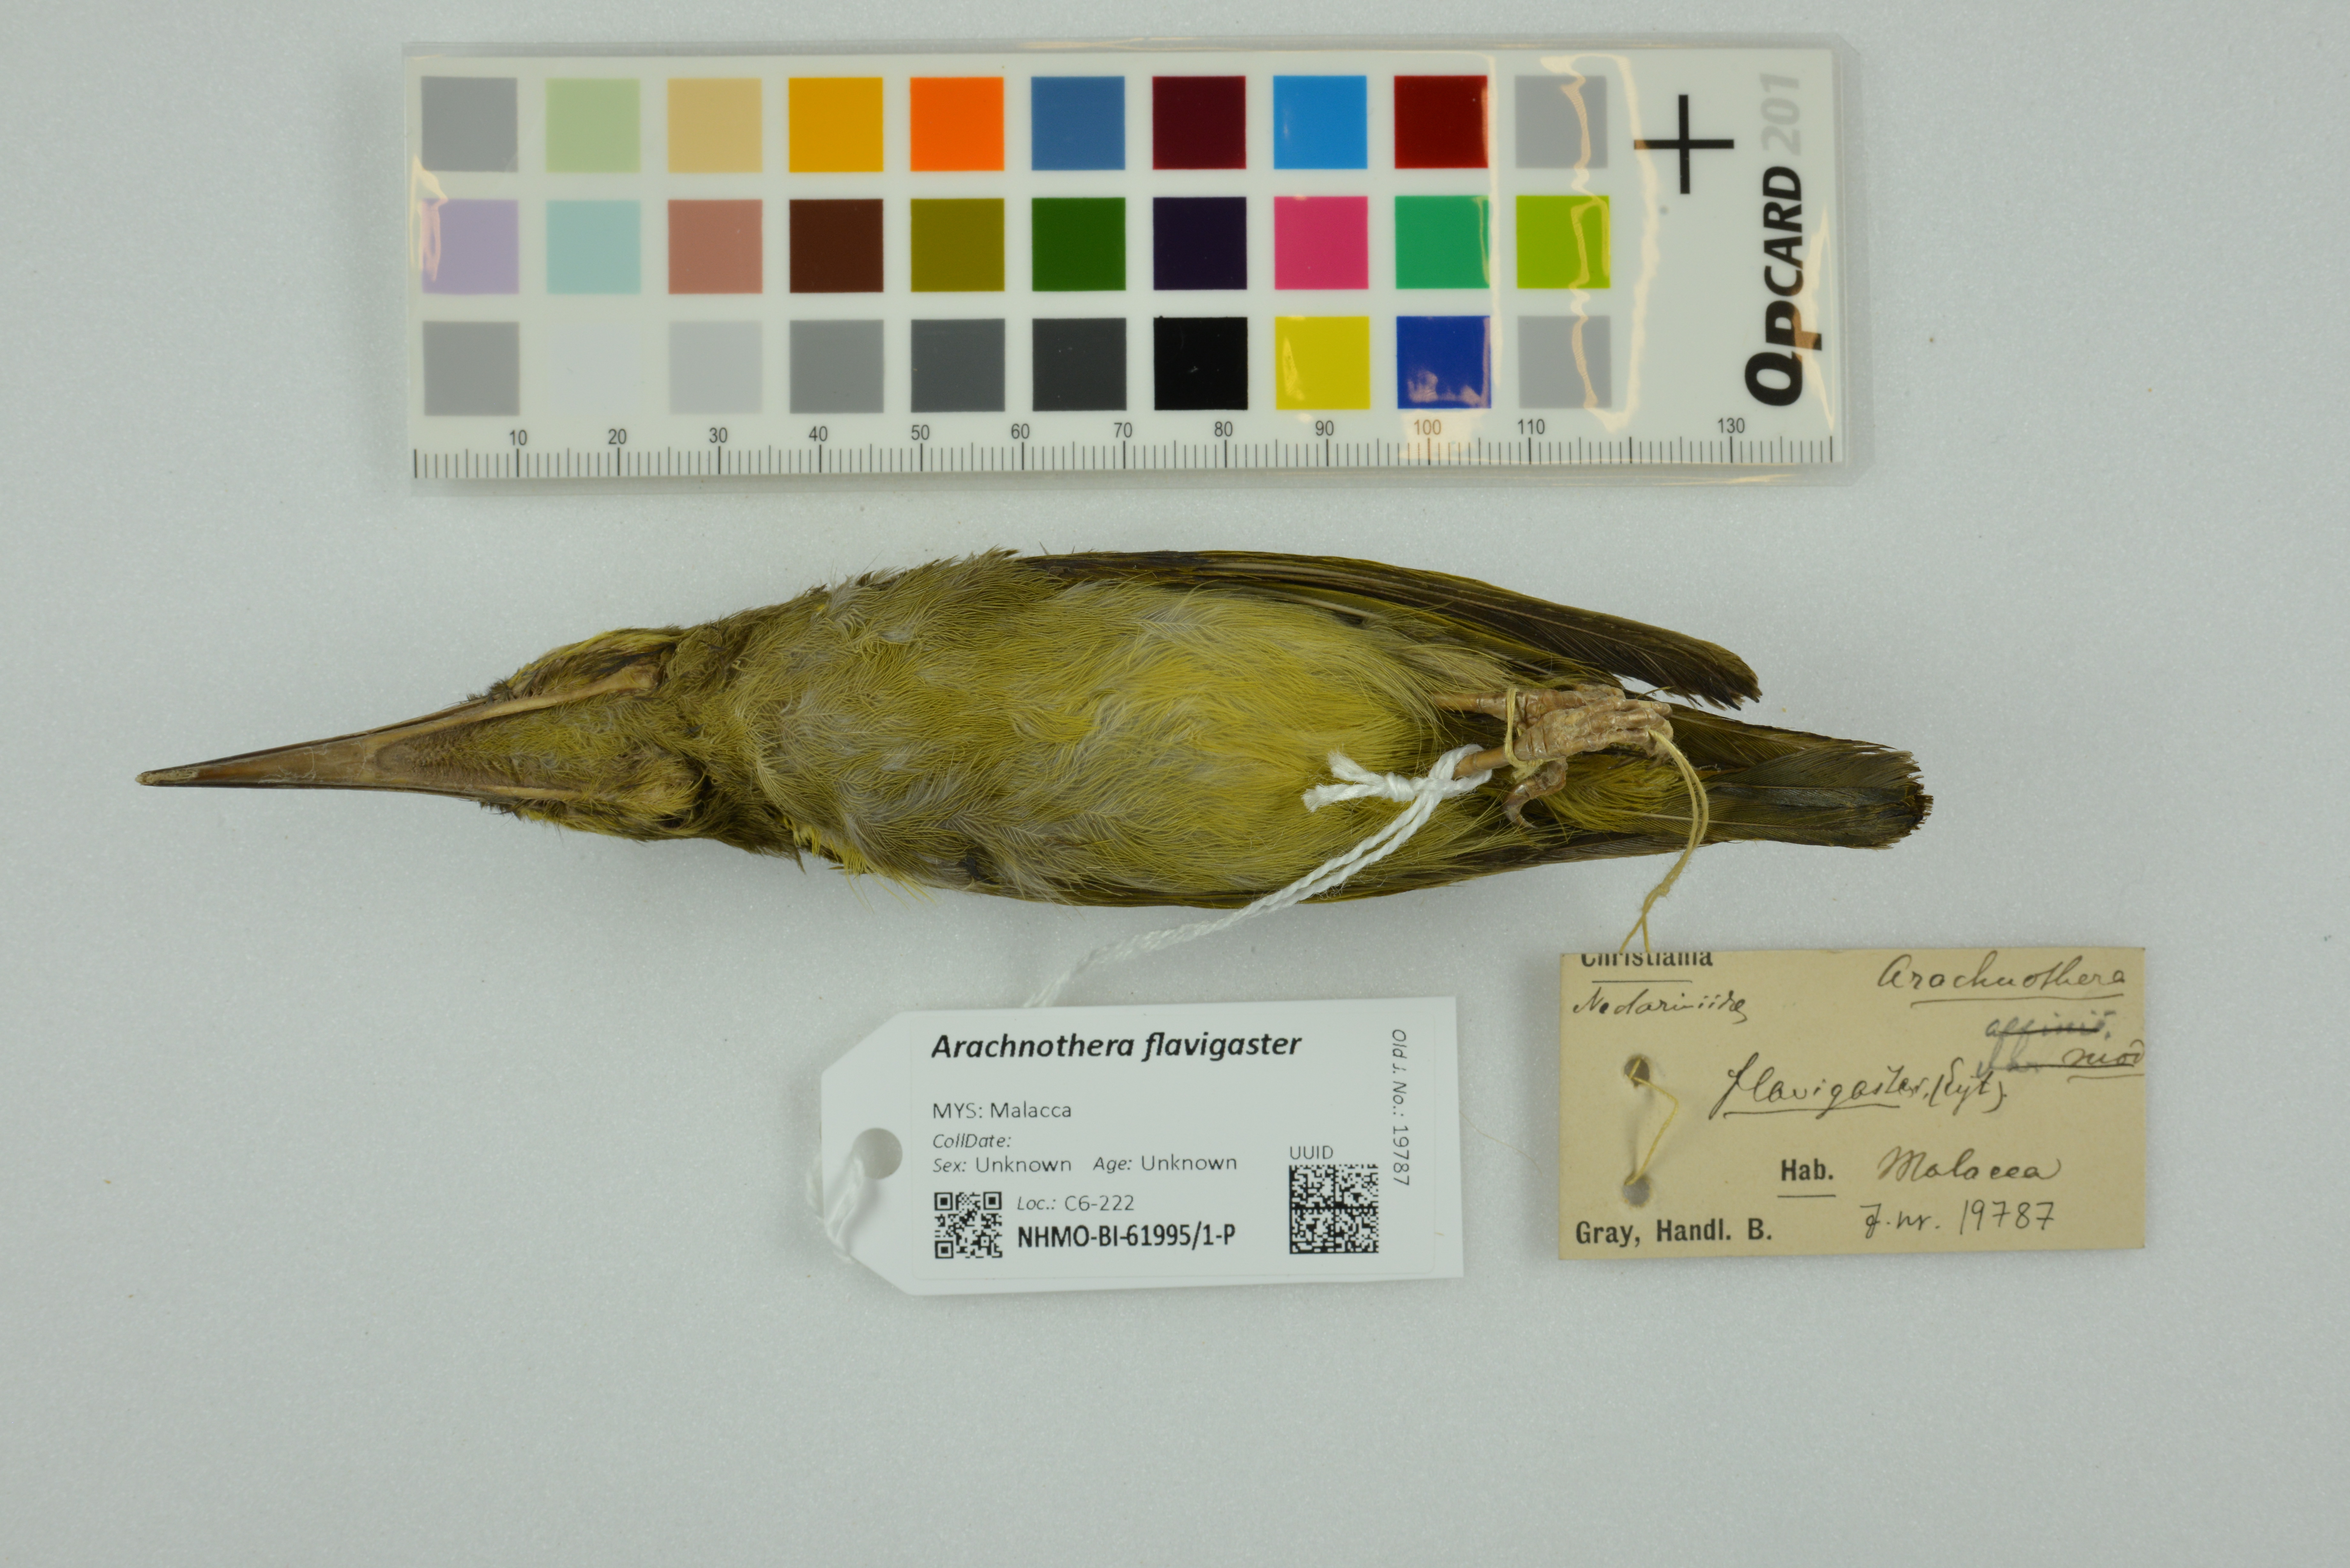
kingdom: Animalia
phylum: Chordata
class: Aves
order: Passeriformes
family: Nectariniidae
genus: Arachnothera
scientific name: Arachnothera flavigaster
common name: Spectacled spiderhunter
